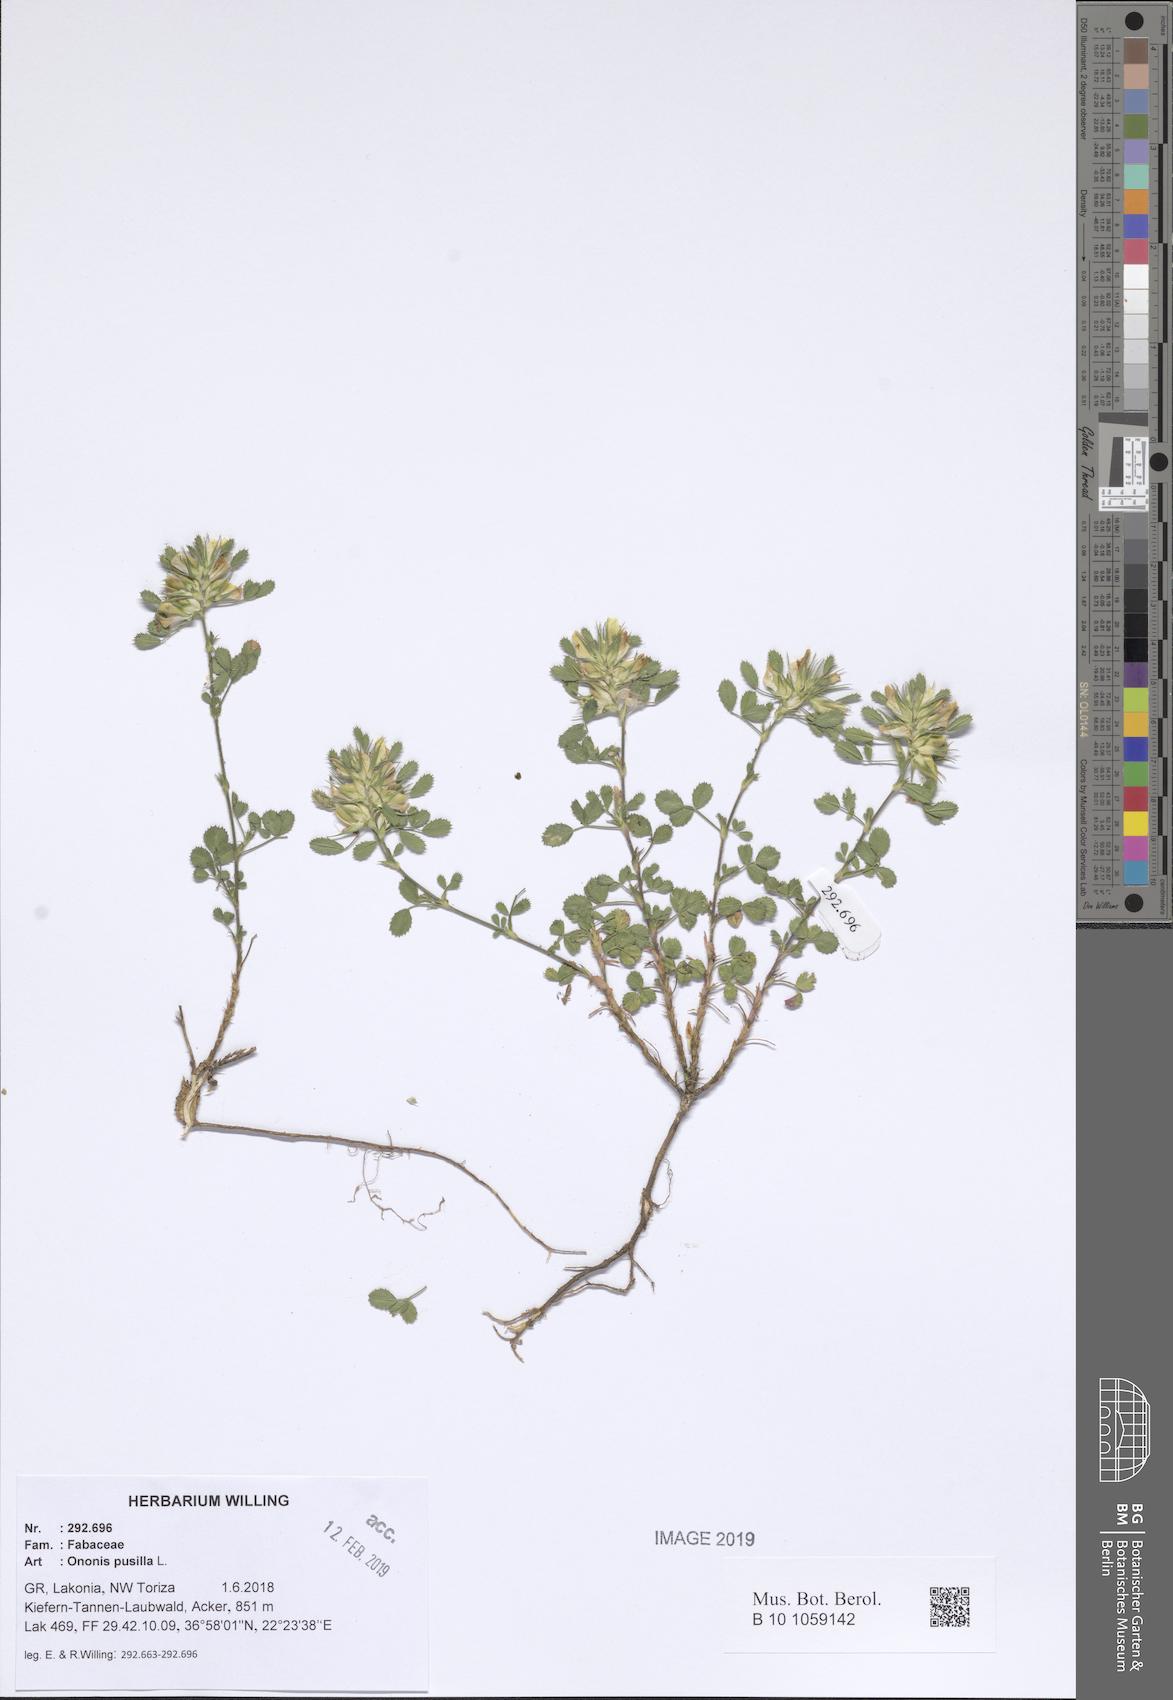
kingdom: Plantae
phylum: Tracheophyta
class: Magnoliopsida
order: Fabales
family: Fabaceae
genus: Ononis
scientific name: Ononis pusilla
